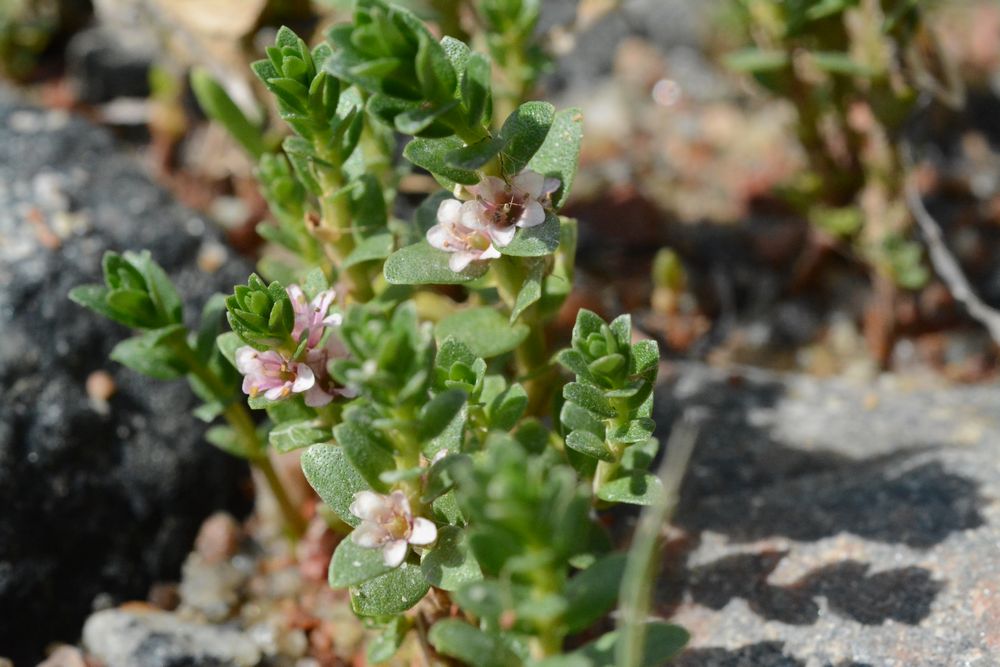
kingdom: Plantae
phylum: Tracheophyta
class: Magnoliopsida
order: Ericales
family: Primulaceae
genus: Lysimachia
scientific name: Lysimachia maritima
